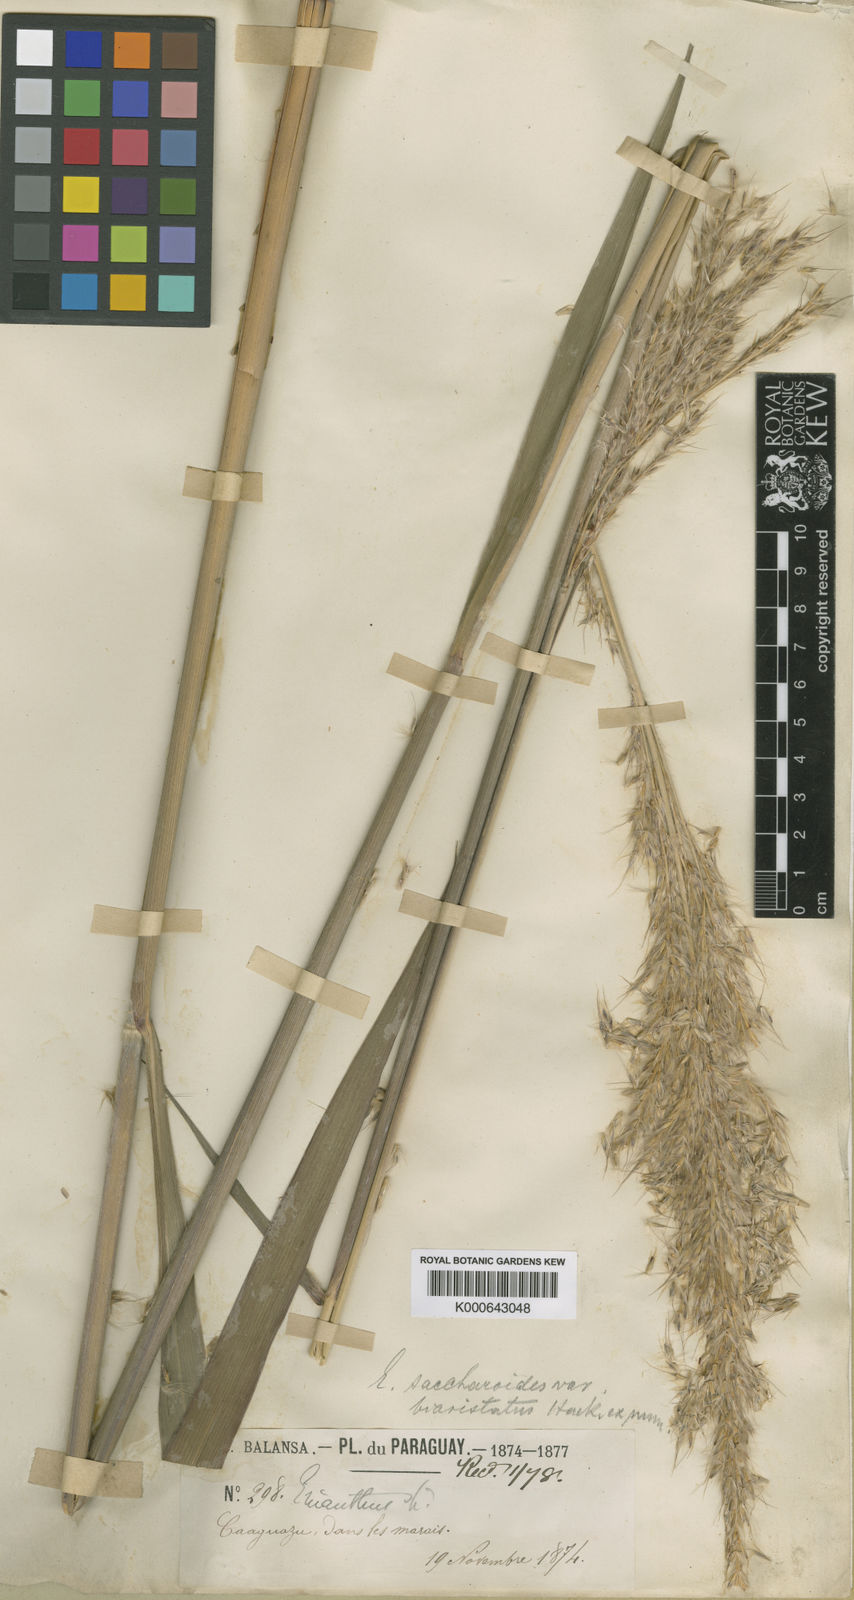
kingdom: Plantae
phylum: Tracheophyta
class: Liliopsida
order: Poales
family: Poaceae
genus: Saccharum
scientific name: Saccharum angustifolium
